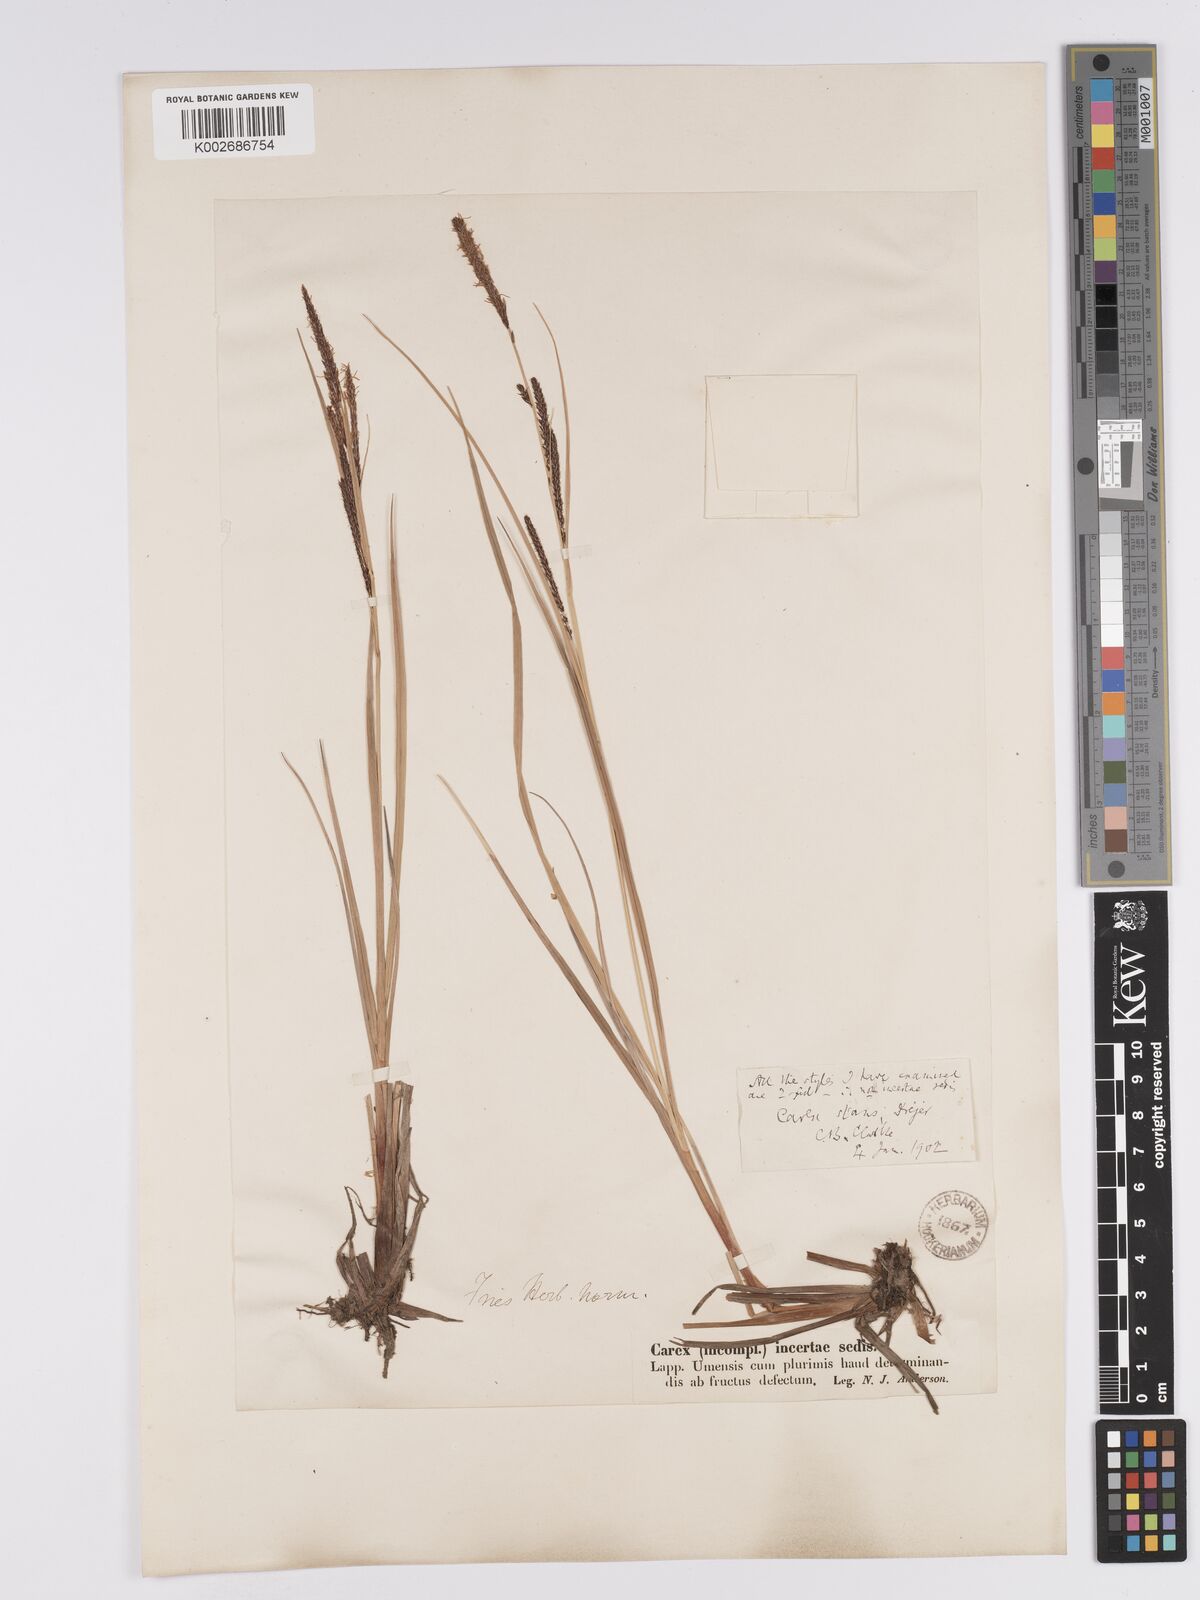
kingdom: Plantae
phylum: Tracheophyta
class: Liliopsida
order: Poales
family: Cyperaceae
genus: Carex
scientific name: Carex aquatilis
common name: Water sedge
